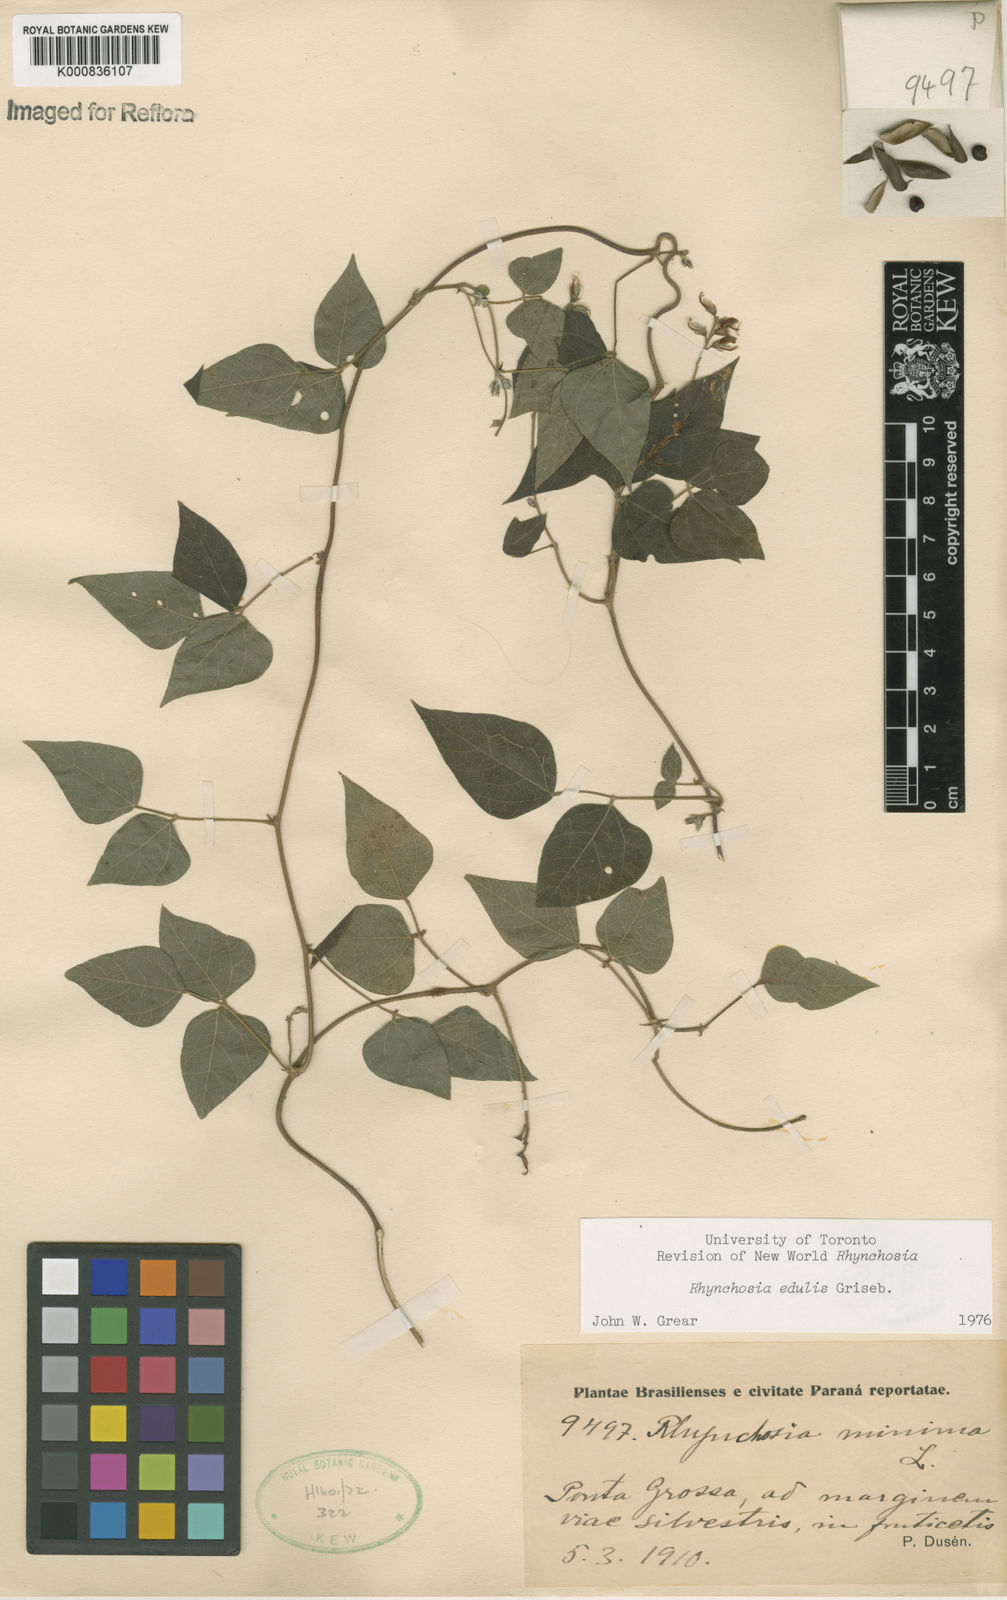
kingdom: Plantae
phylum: Tracheophyta
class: Magnoliopsida
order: Fabales
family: Fabaceae
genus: Rhynchosia
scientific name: Rhynchosia edulis
